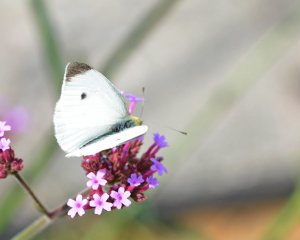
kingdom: Animalia
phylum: Arthropoda
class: Insecta
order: Lepidoptera
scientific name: Lepidoptera
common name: Butterflies
